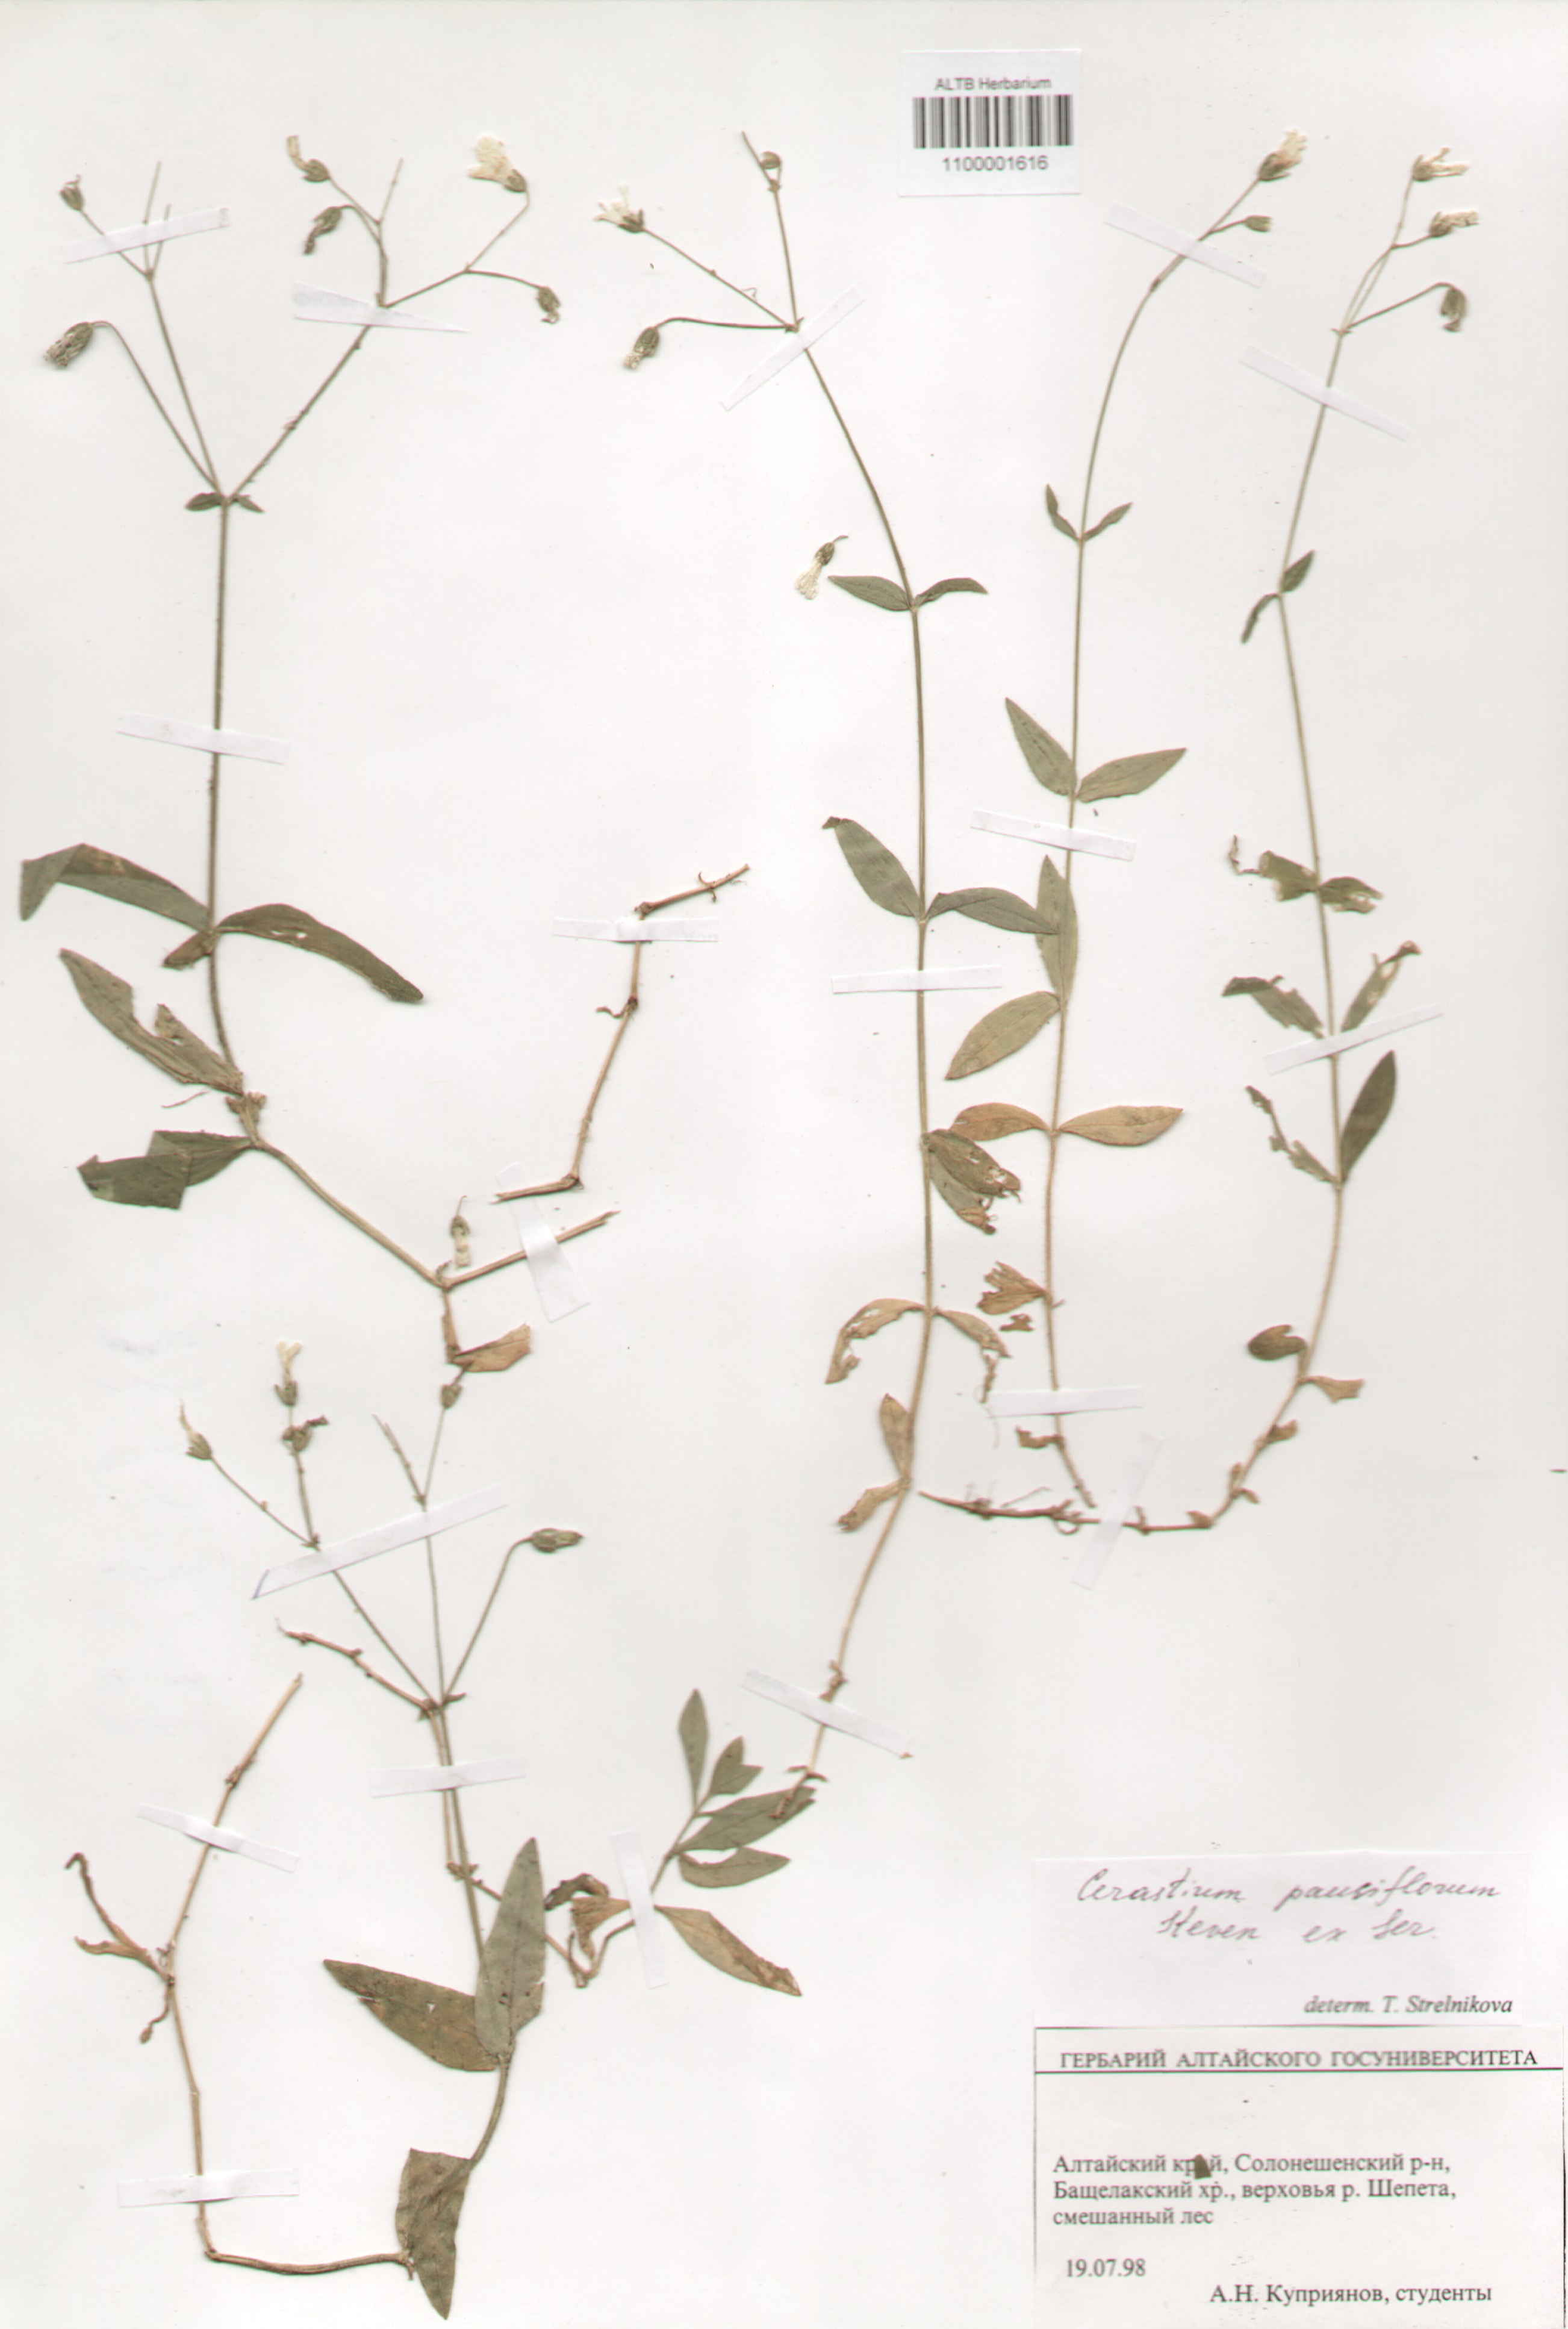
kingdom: Plantae
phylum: Tracheophyta
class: Magnoliopsida
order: Caryophyllales
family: Caryophyllaceae
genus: Cerastium
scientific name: Cerastium pauciflorum
